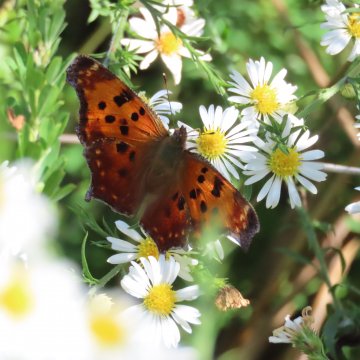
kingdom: Animalia
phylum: Arthropoda
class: Insecta
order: Lepidoptera
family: Nymphalidae
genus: Polygonia
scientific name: Polygonia comma
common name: Eastern Comma
